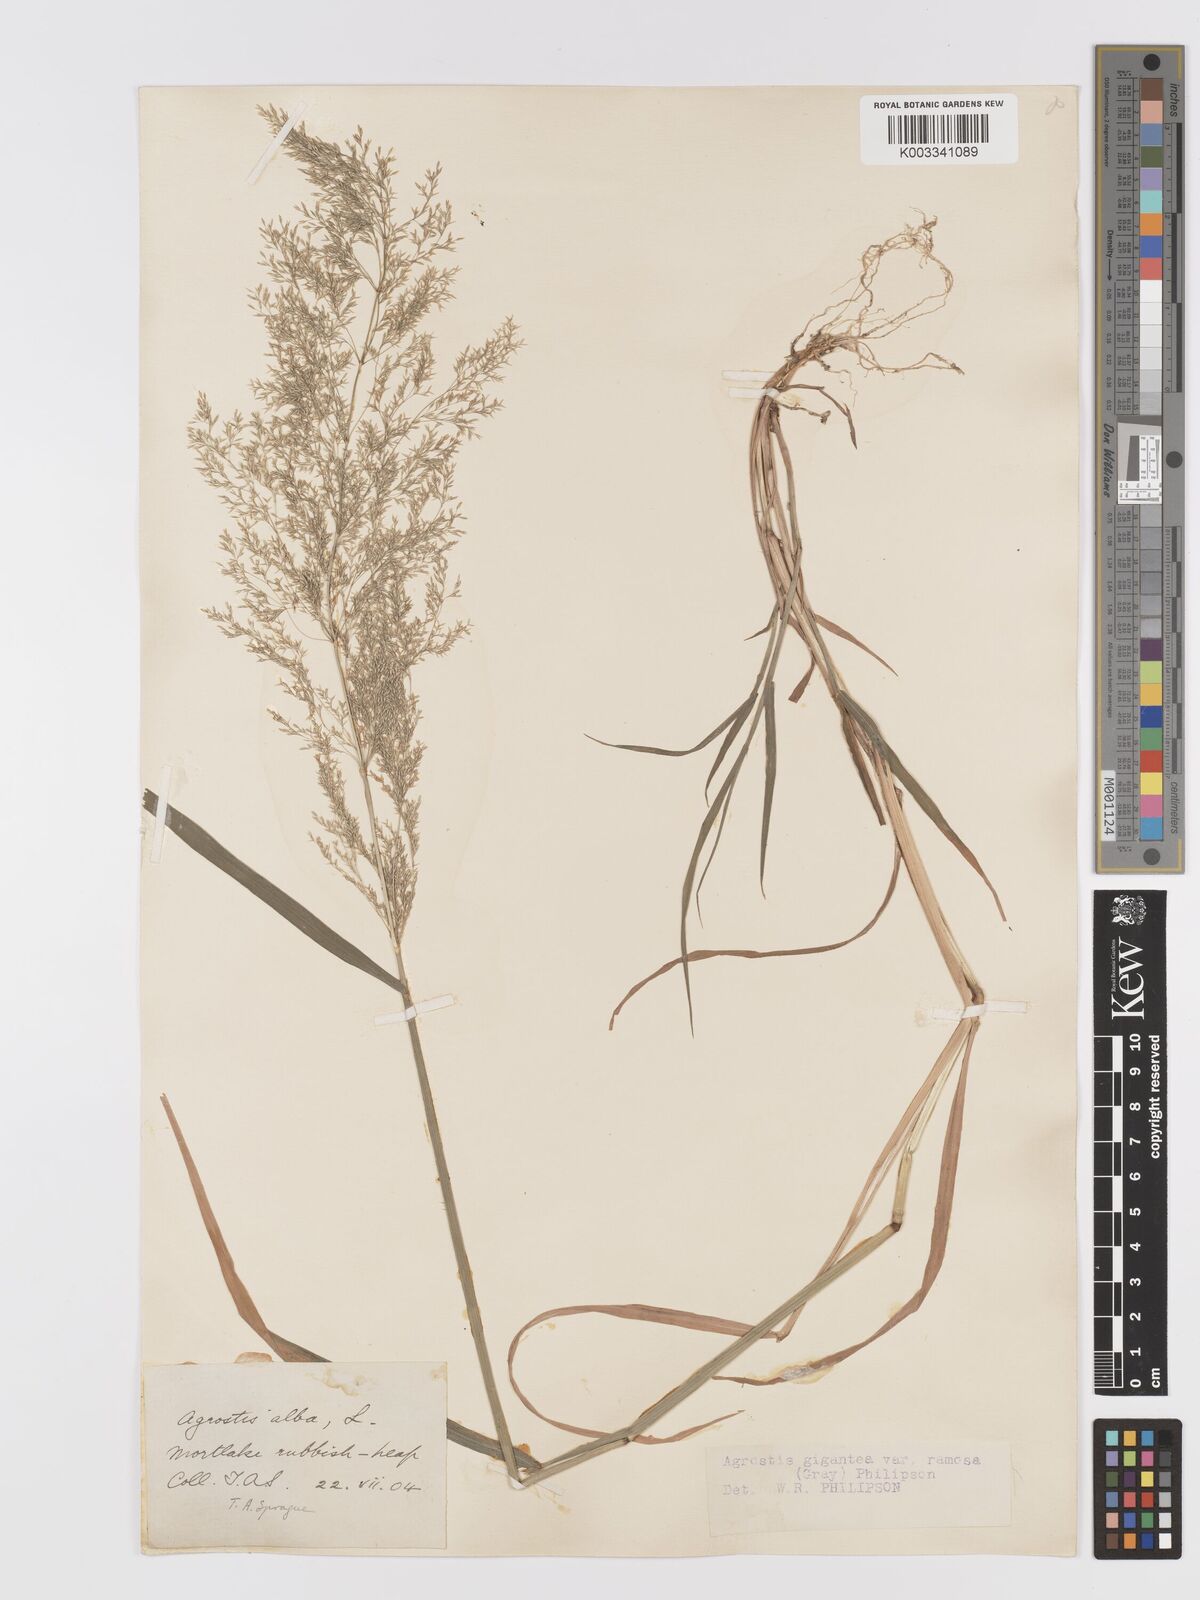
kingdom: Plantae
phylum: Tracheophyta
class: Liliopsida
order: Poales
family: Poaceae
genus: Agrostis
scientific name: Agrostis gigantea
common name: Black bent
